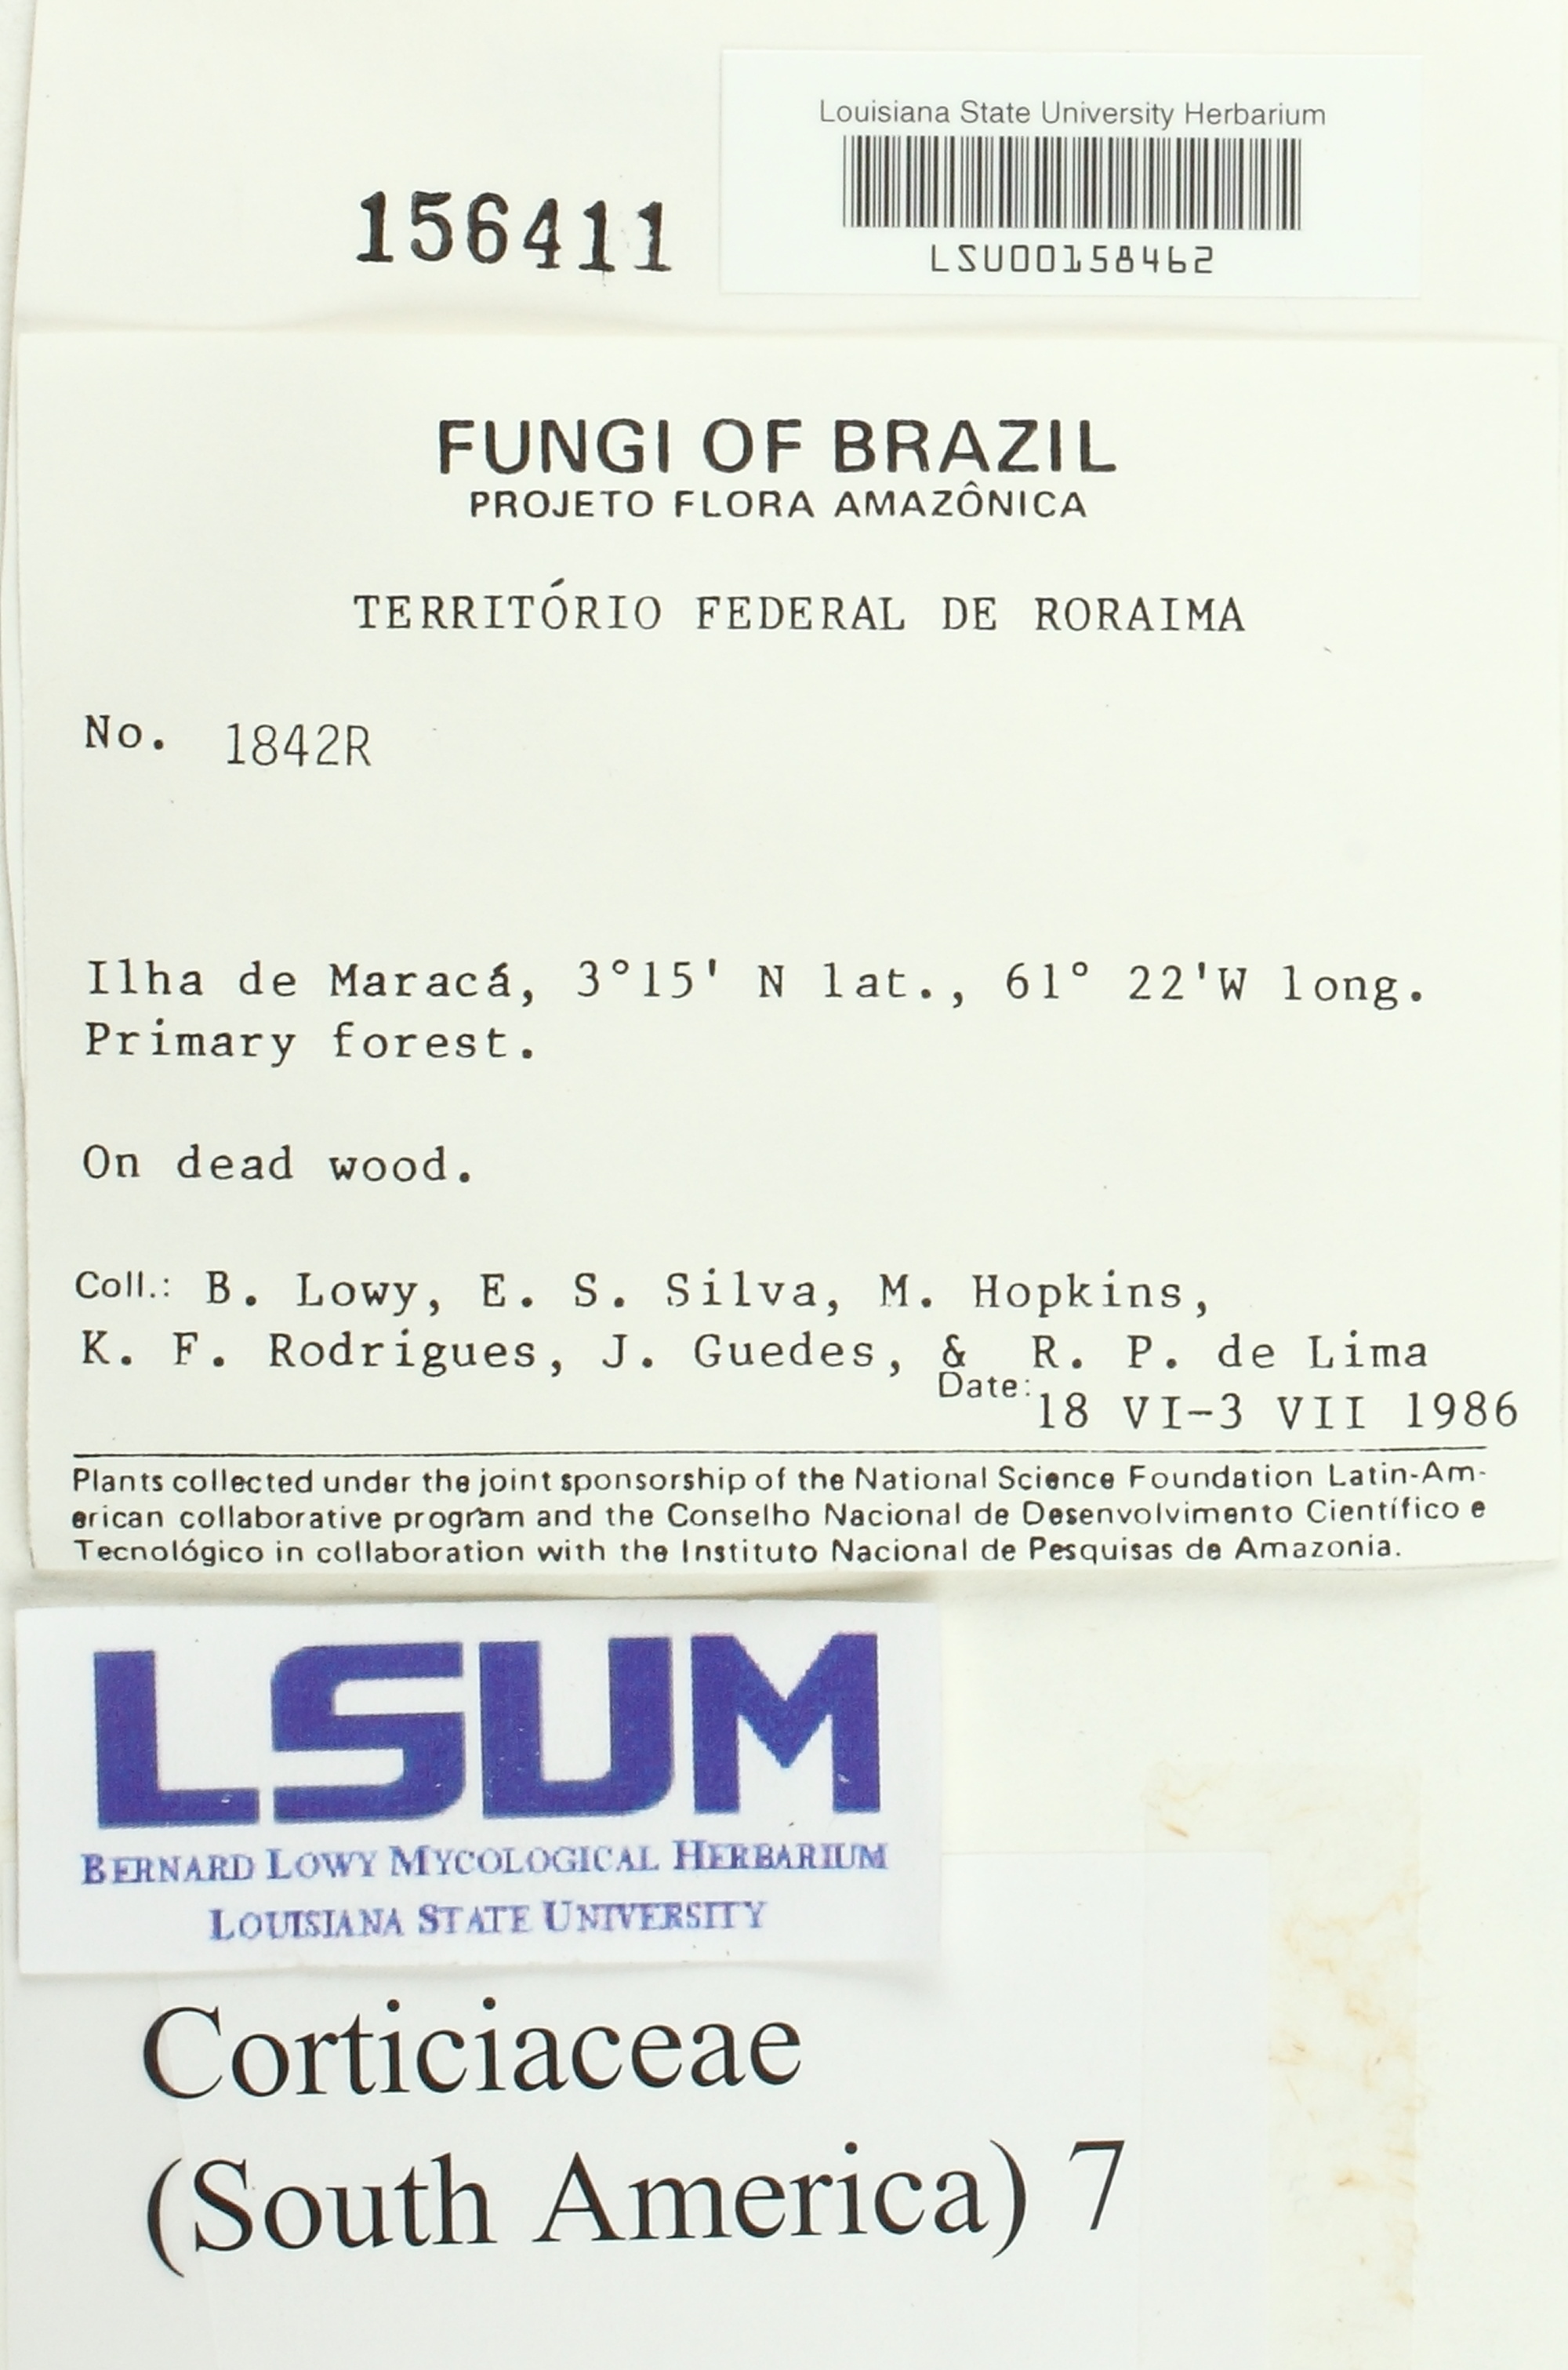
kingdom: Fungi
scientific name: Fungi
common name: Fungi
